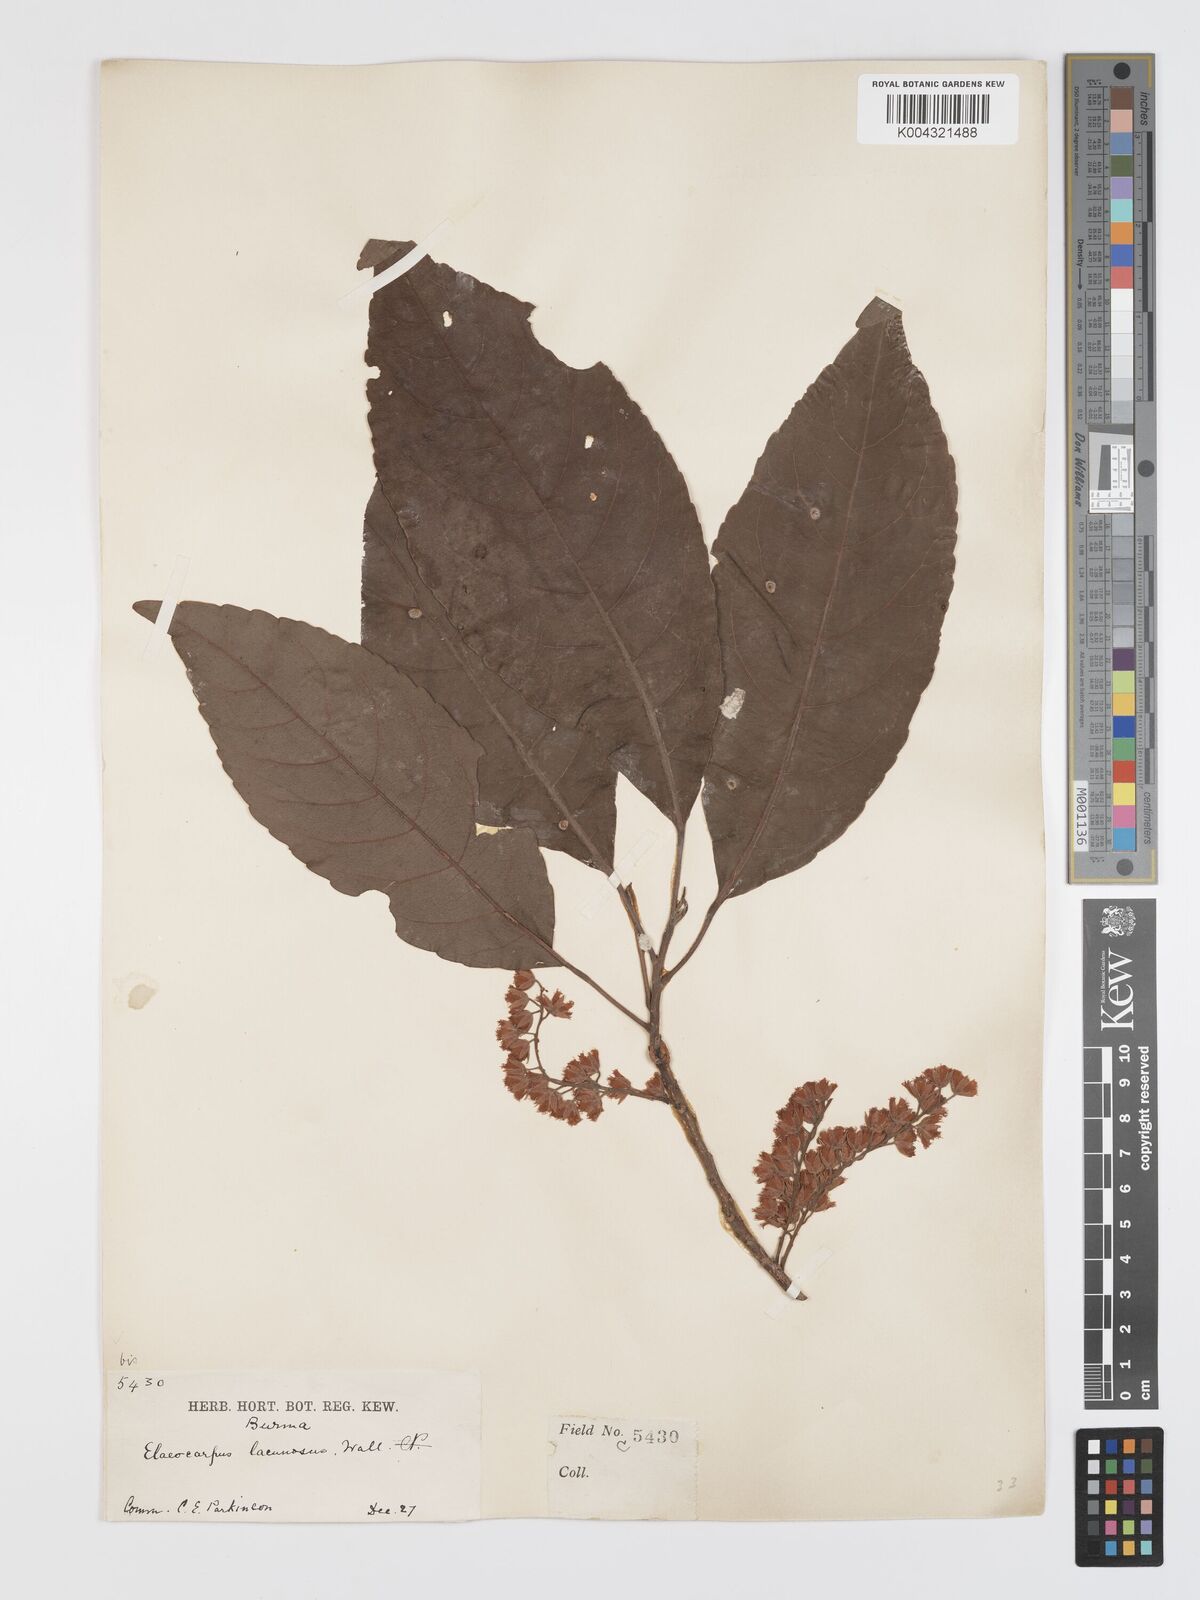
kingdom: Plantae
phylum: Tracheophyta
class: Magnoliopsida
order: Oxalidales
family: Elaeocarpaceae
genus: Elaeocarpus
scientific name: Elaeocarpus lanceifolius
